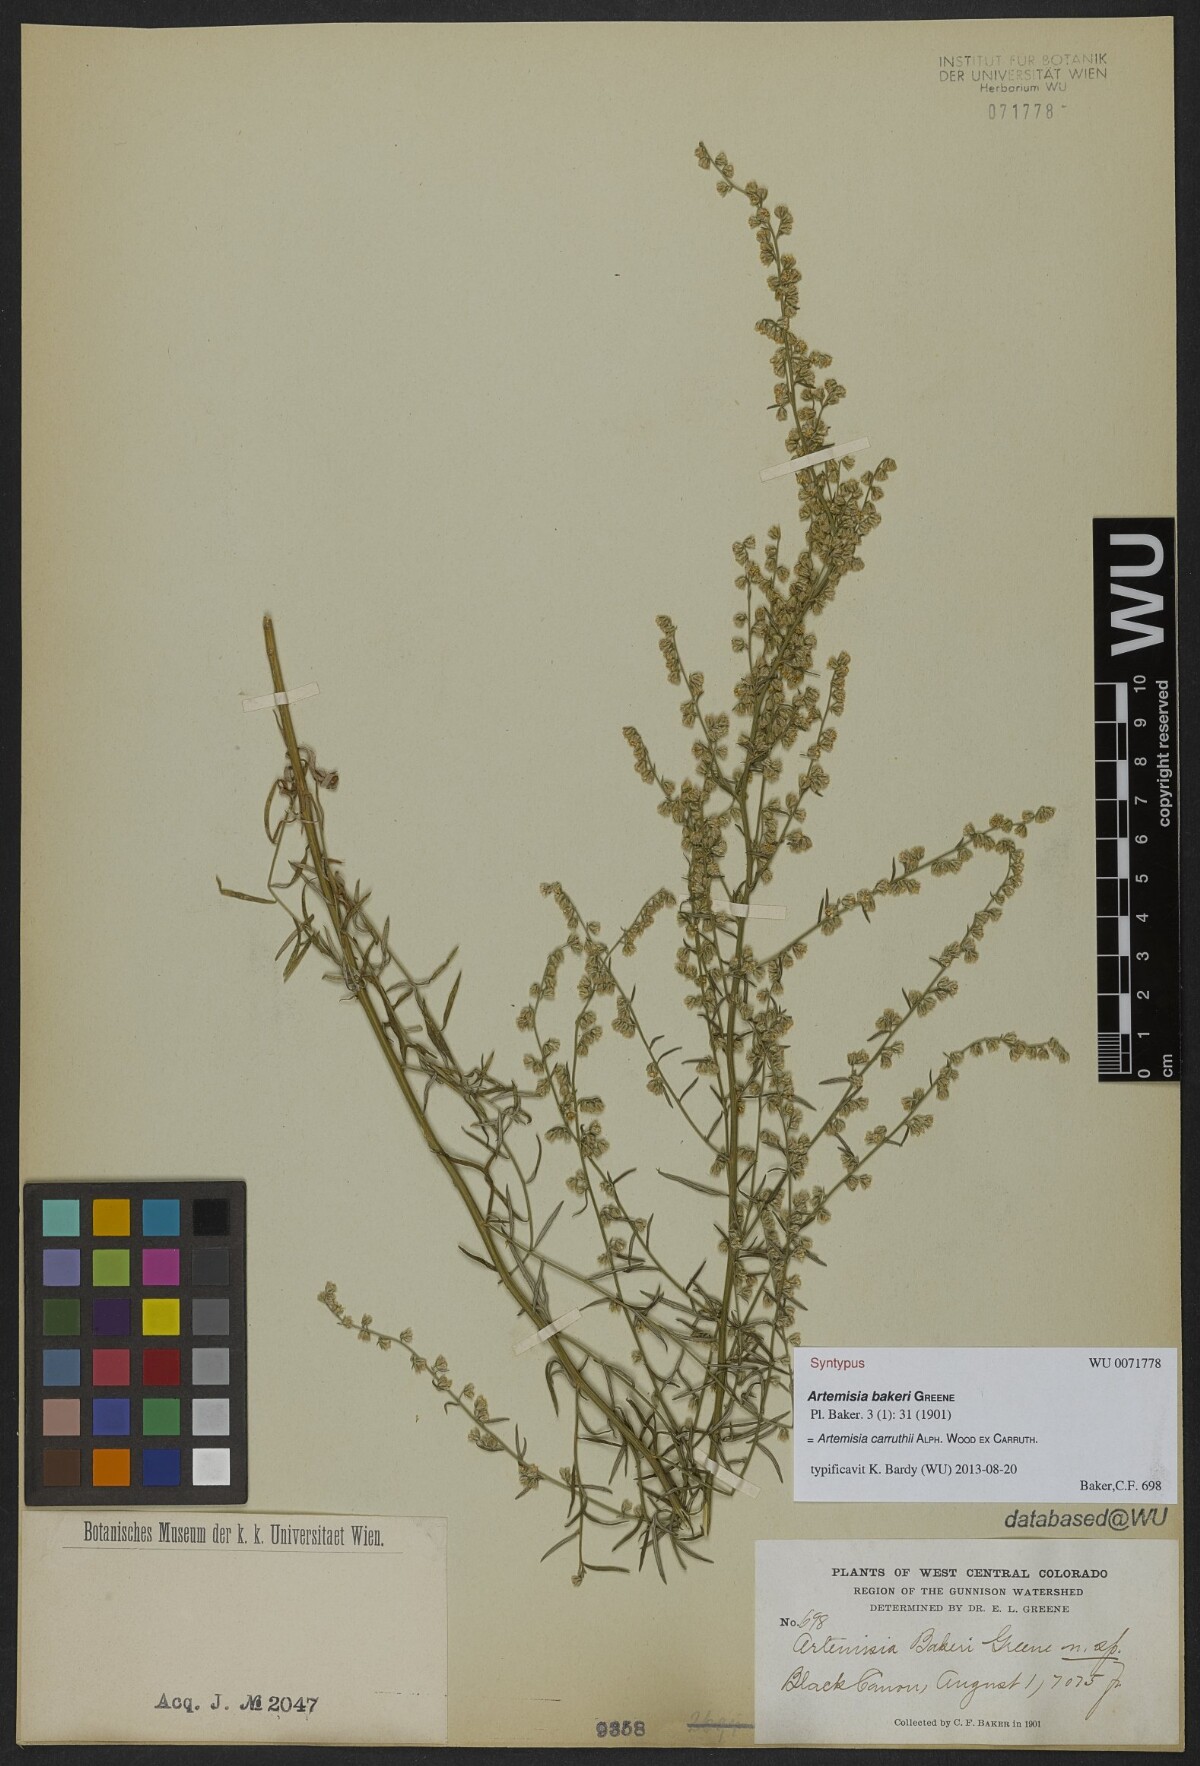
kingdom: Plantae
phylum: Tracheophyta
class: Magnoliopsida
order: Asterales
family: Asteraceae
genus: Artemisia
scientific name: Artemisia carruthii
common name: Carruth wormwood
